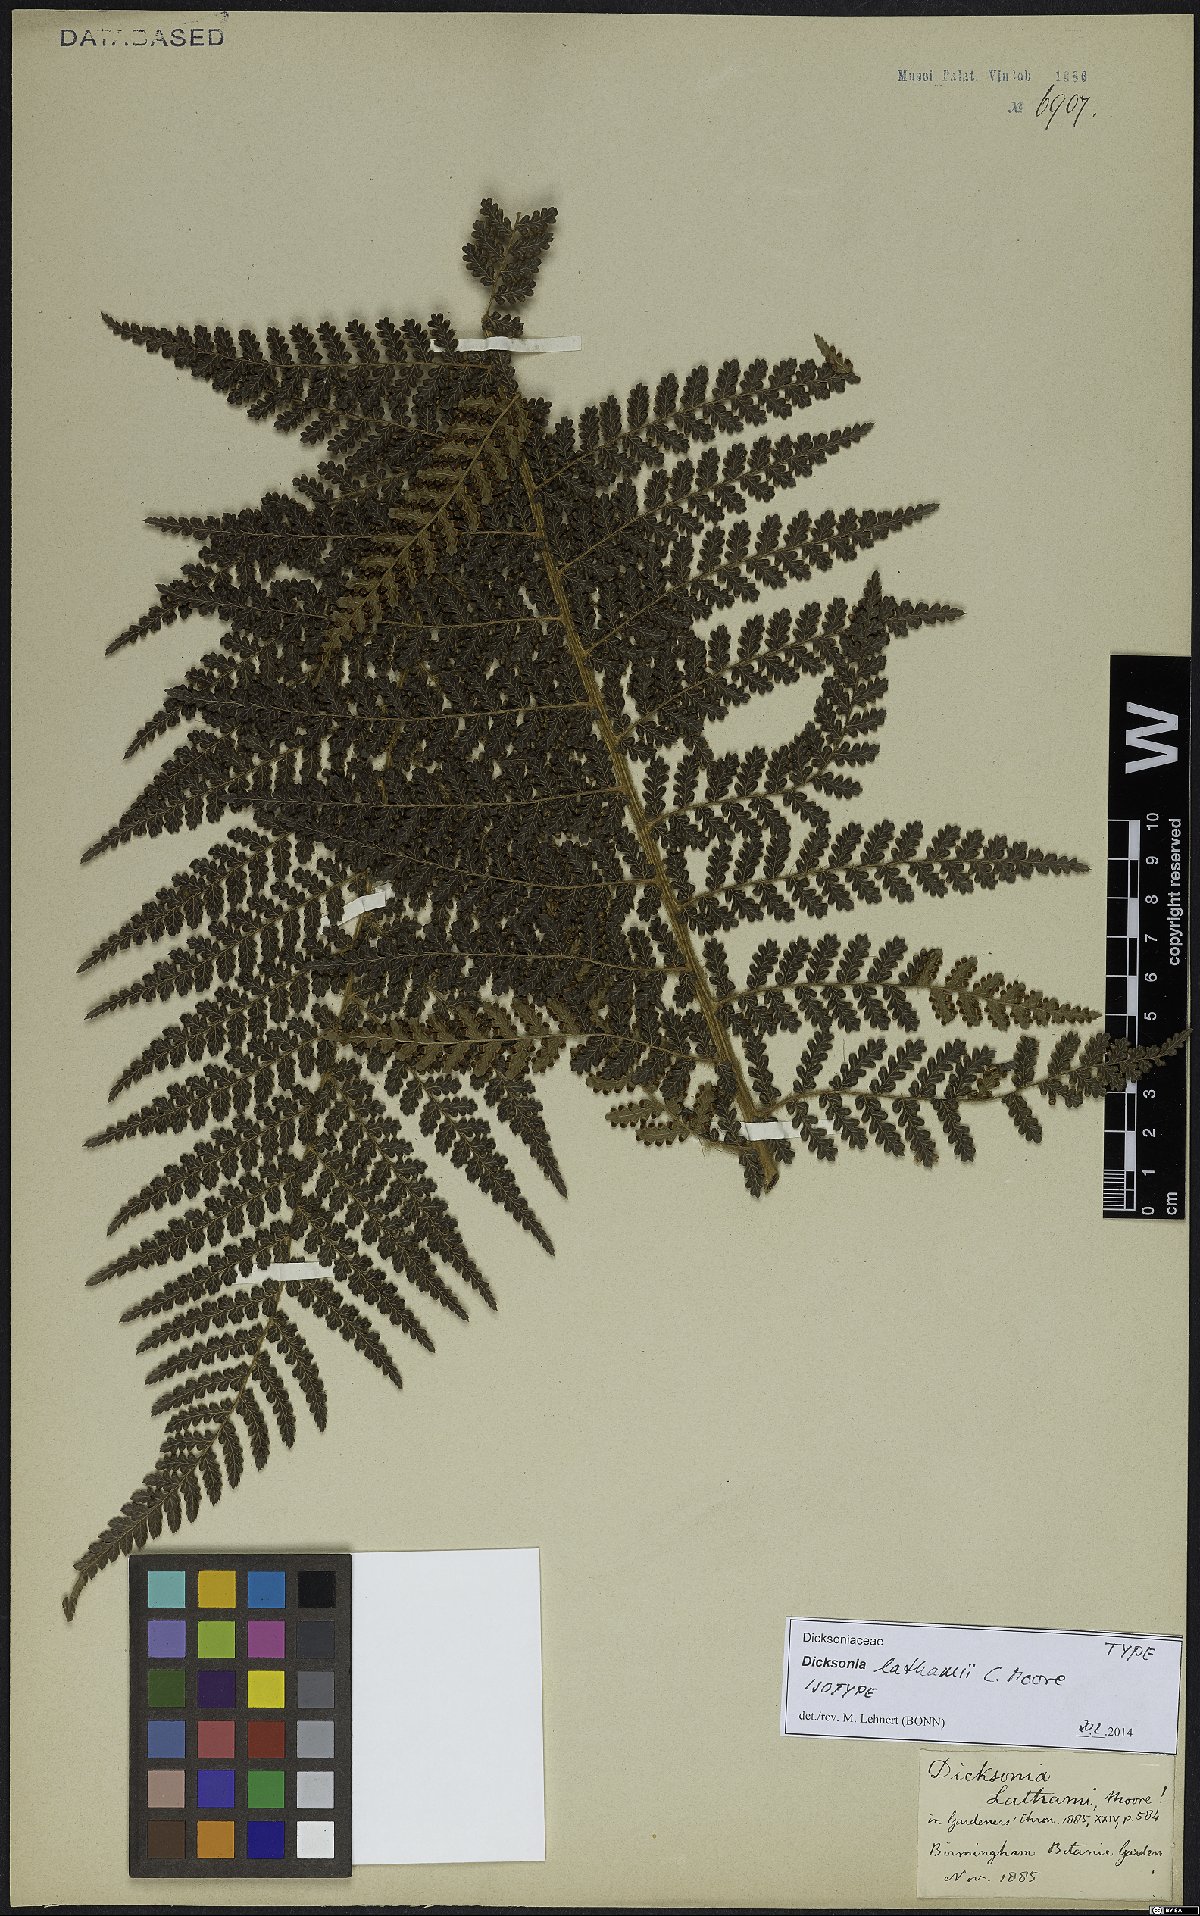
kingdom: Plantae
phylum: Tracheophyta
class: Polypodiopsida
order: Cyatheales
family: Dicksoniaceae
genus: Dicksonia
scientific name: Dicksonia lathamii
